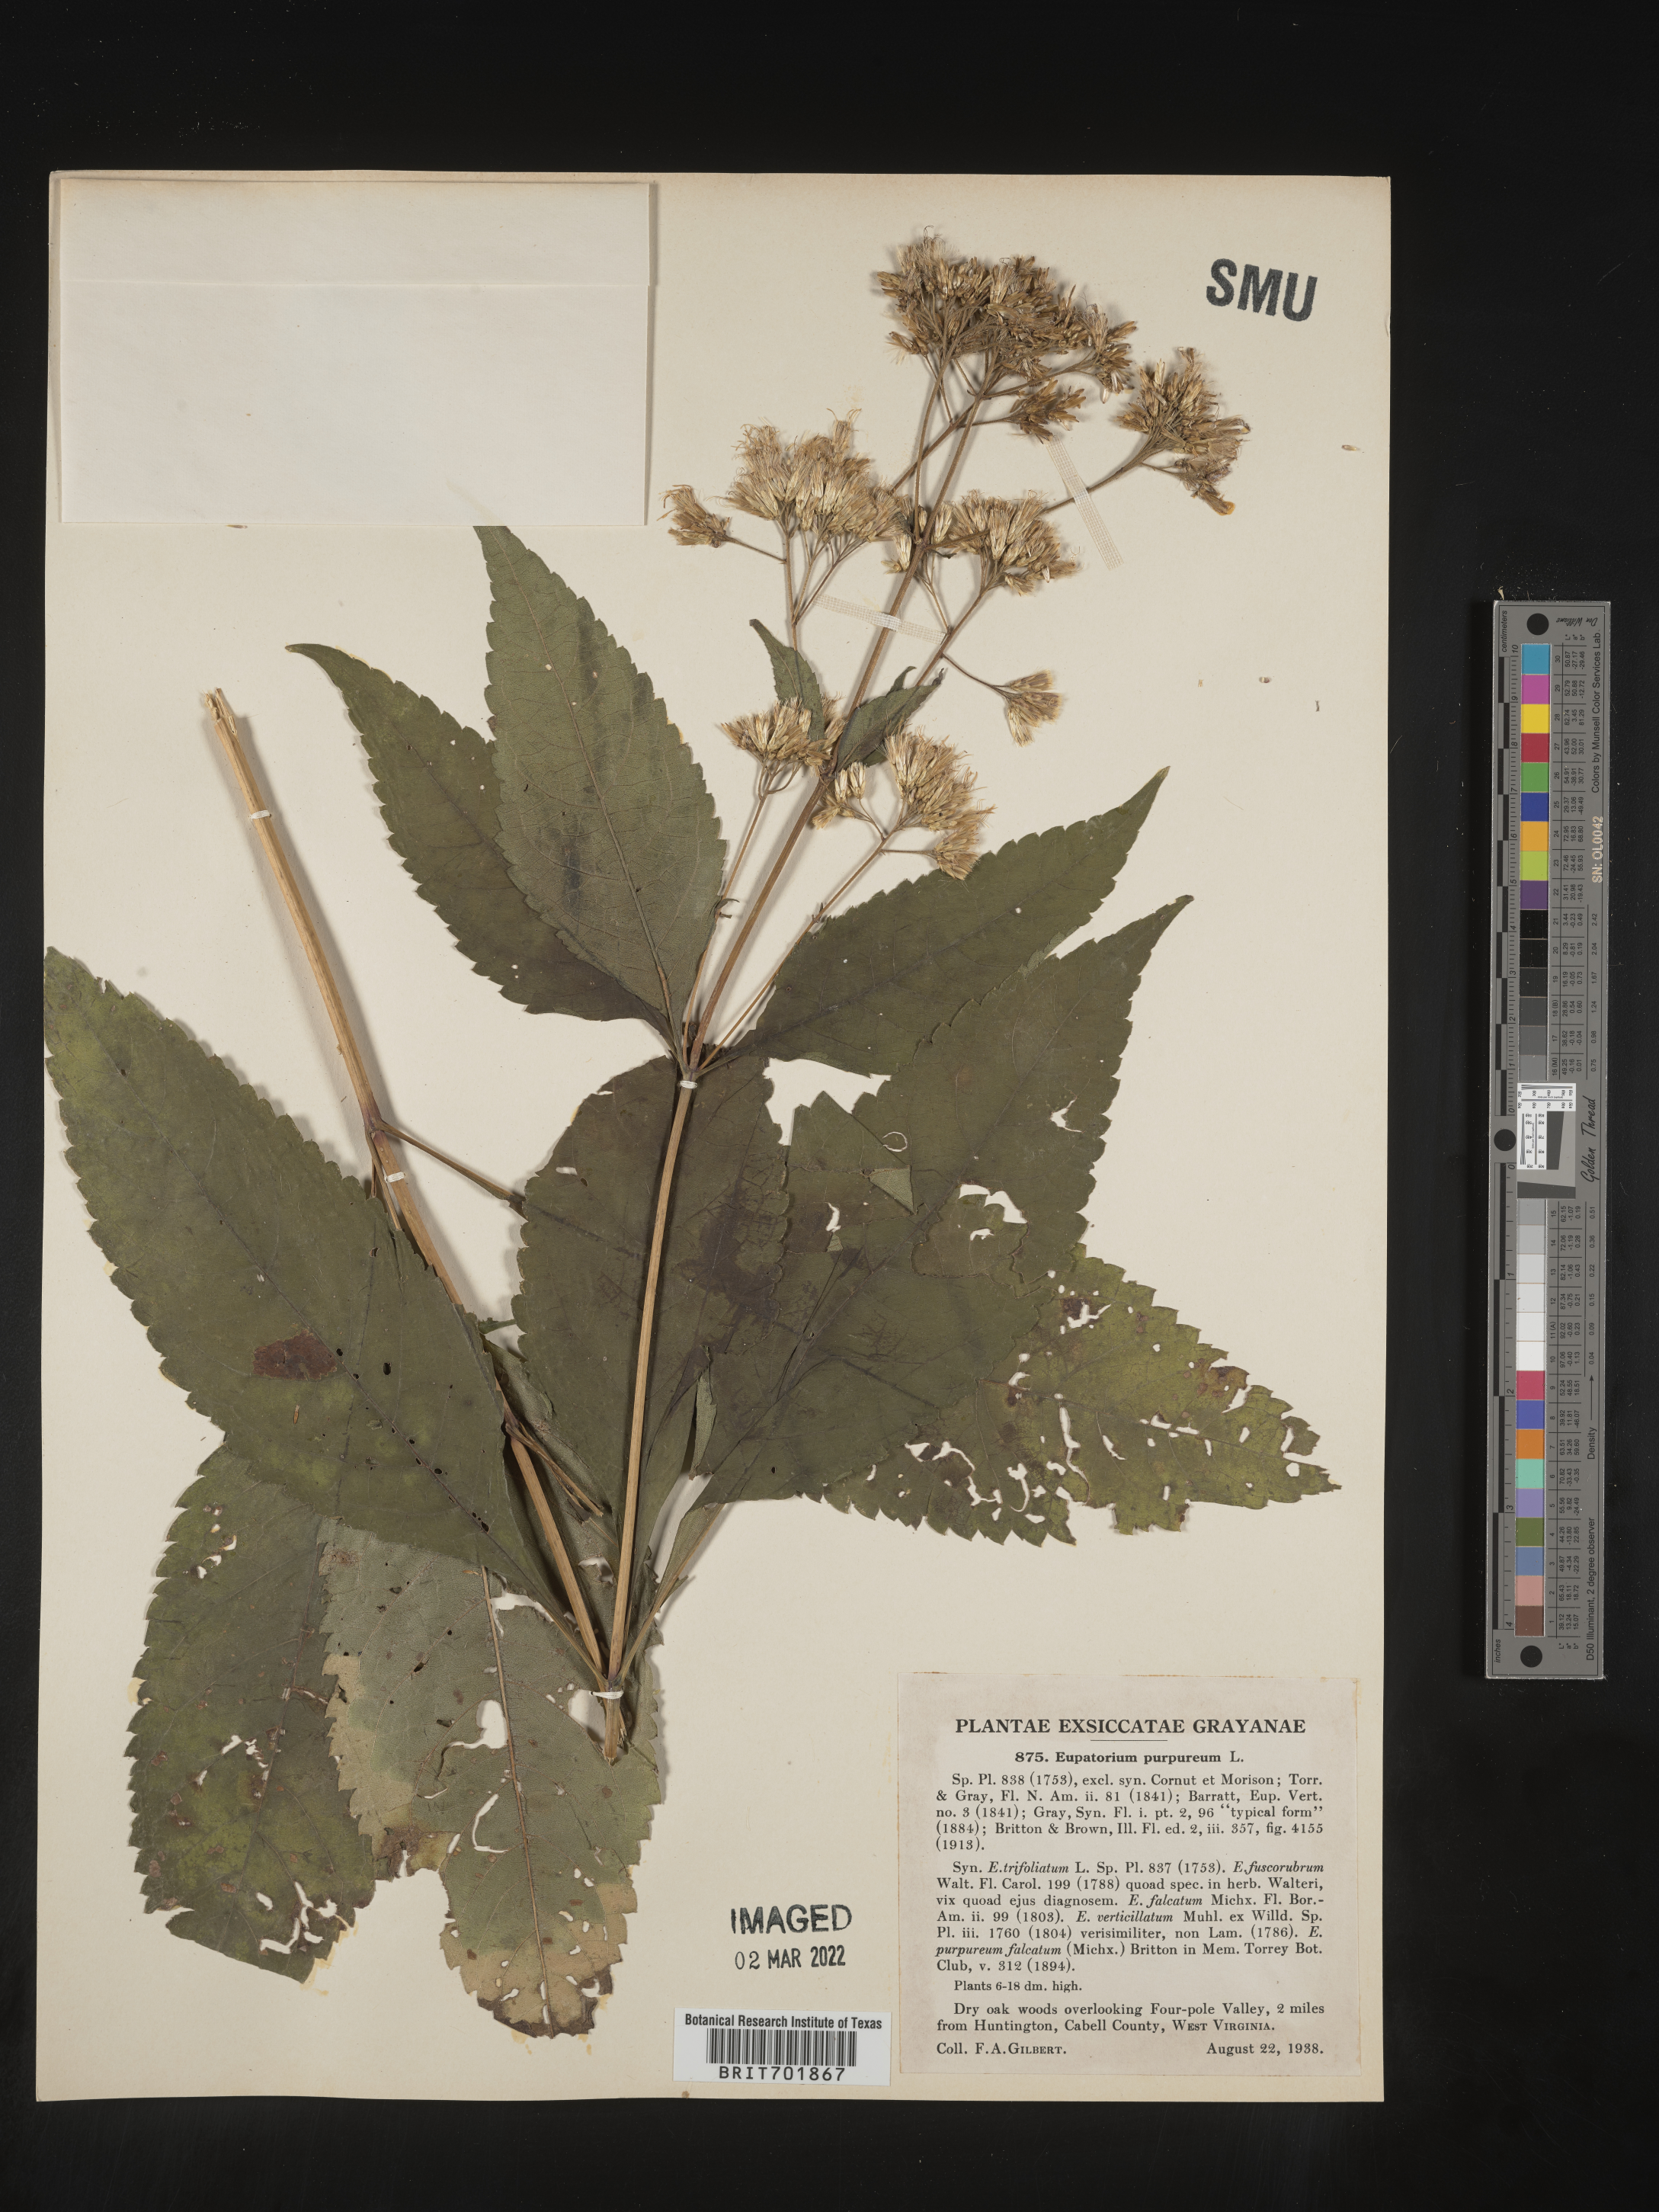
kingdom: Plantae
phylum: Tracheophyta
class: Magnoliopsida
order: Asterales
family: Asteraceae
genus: Eupatorium
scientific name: Eupatorium quaternum
